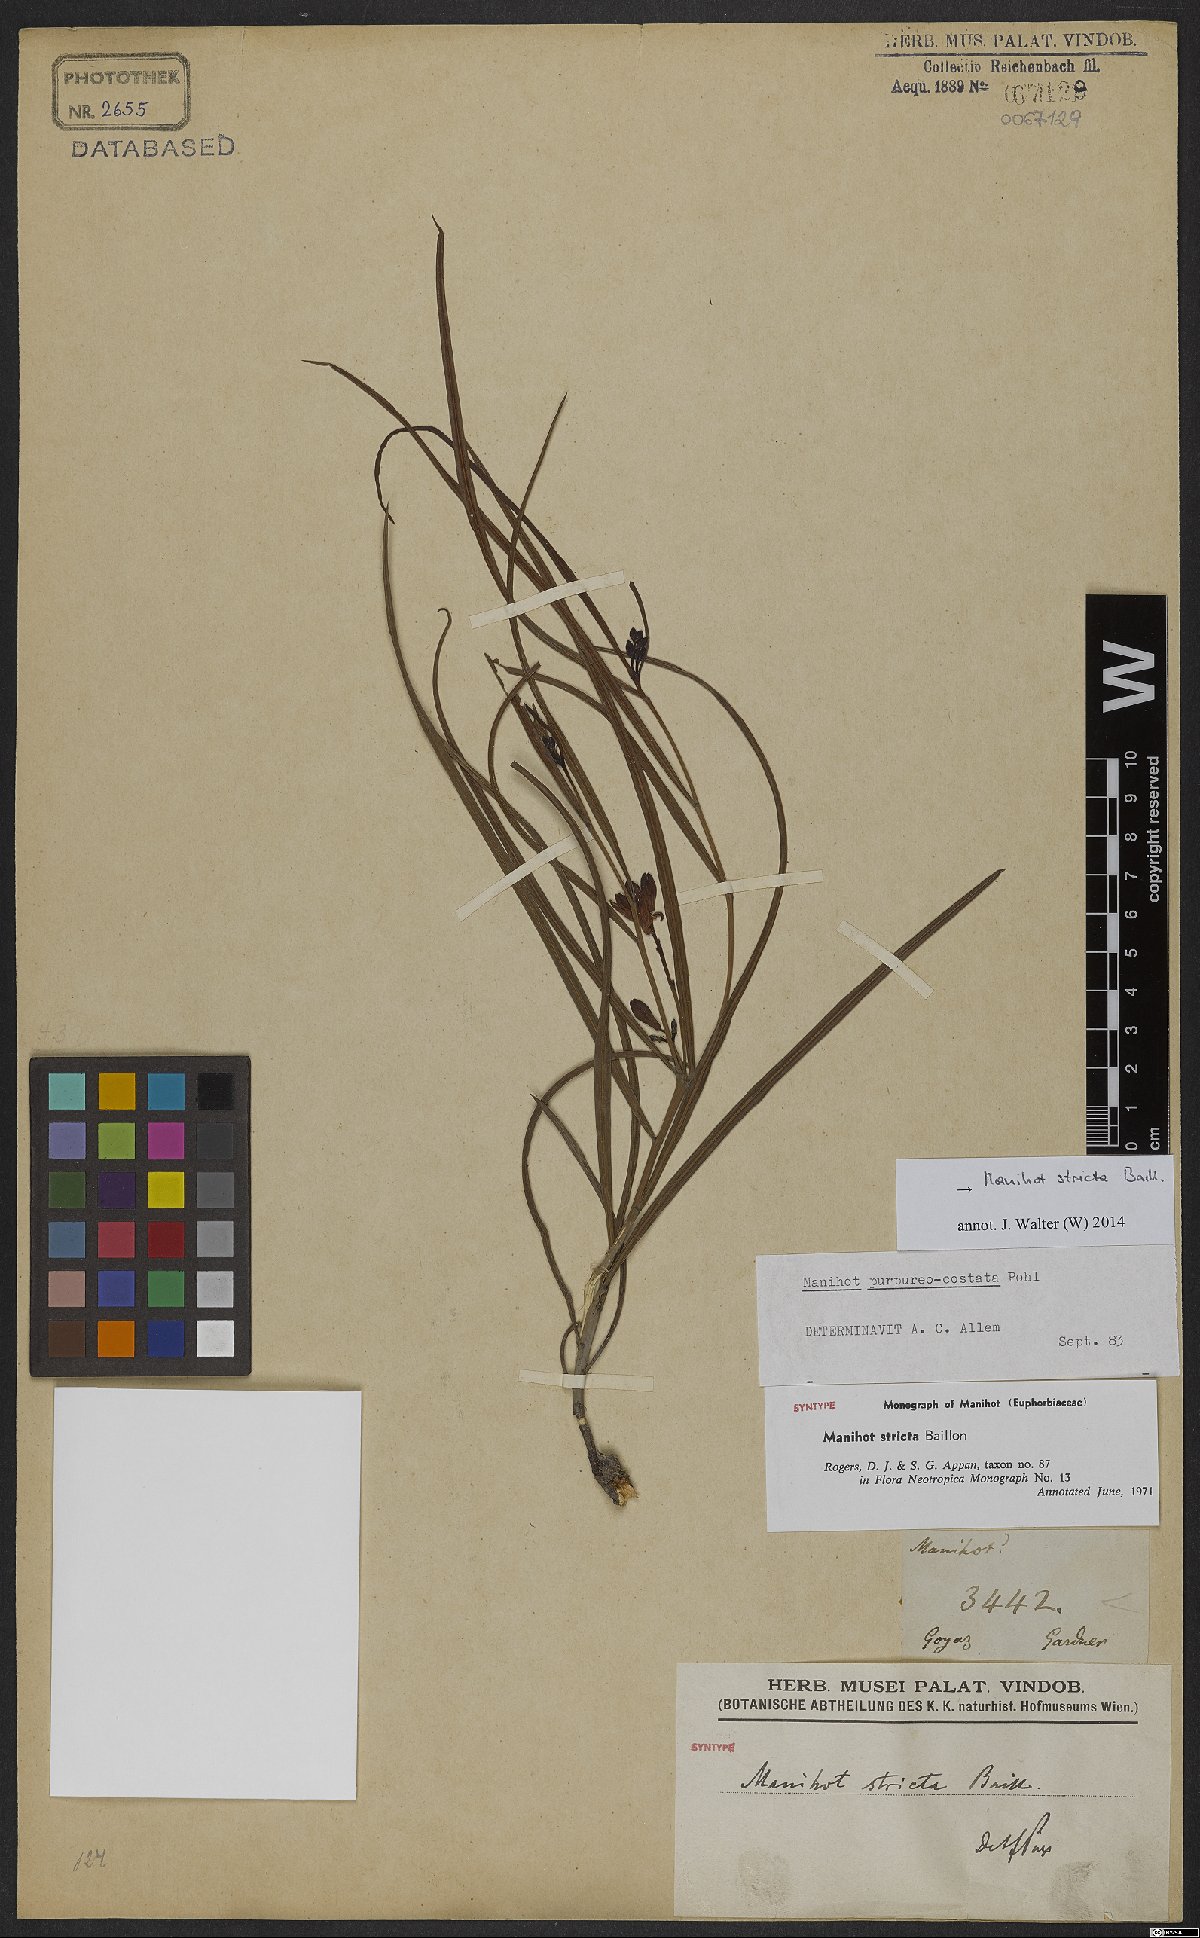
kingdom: Plantae
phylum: Tracheophyta
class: Magnoliopsida
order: Malpighiales
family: Euphorbiaceae
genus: Manihot
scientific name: Manihot stricta
